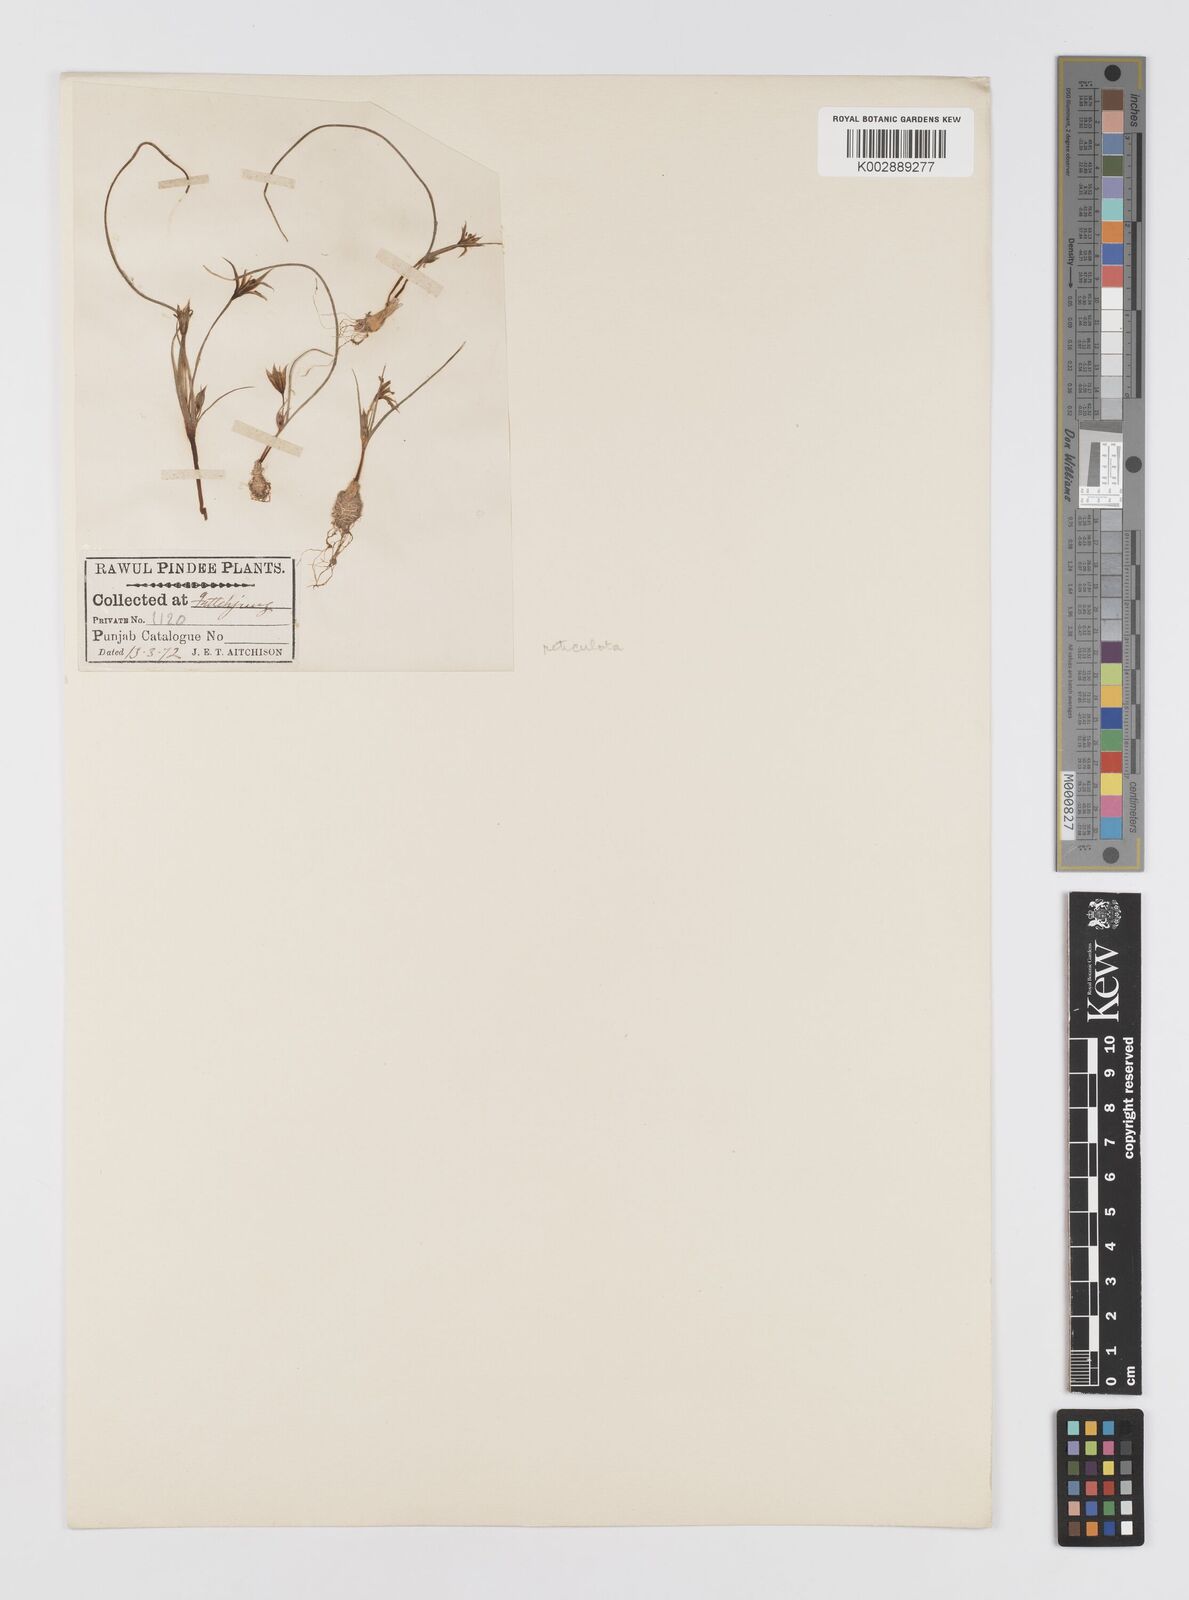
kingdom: Plantae
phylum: Tracheophyta
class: Liliopsida
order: Liliales
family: Liliaceae
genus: Gagea
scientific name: Gagea reticulata
